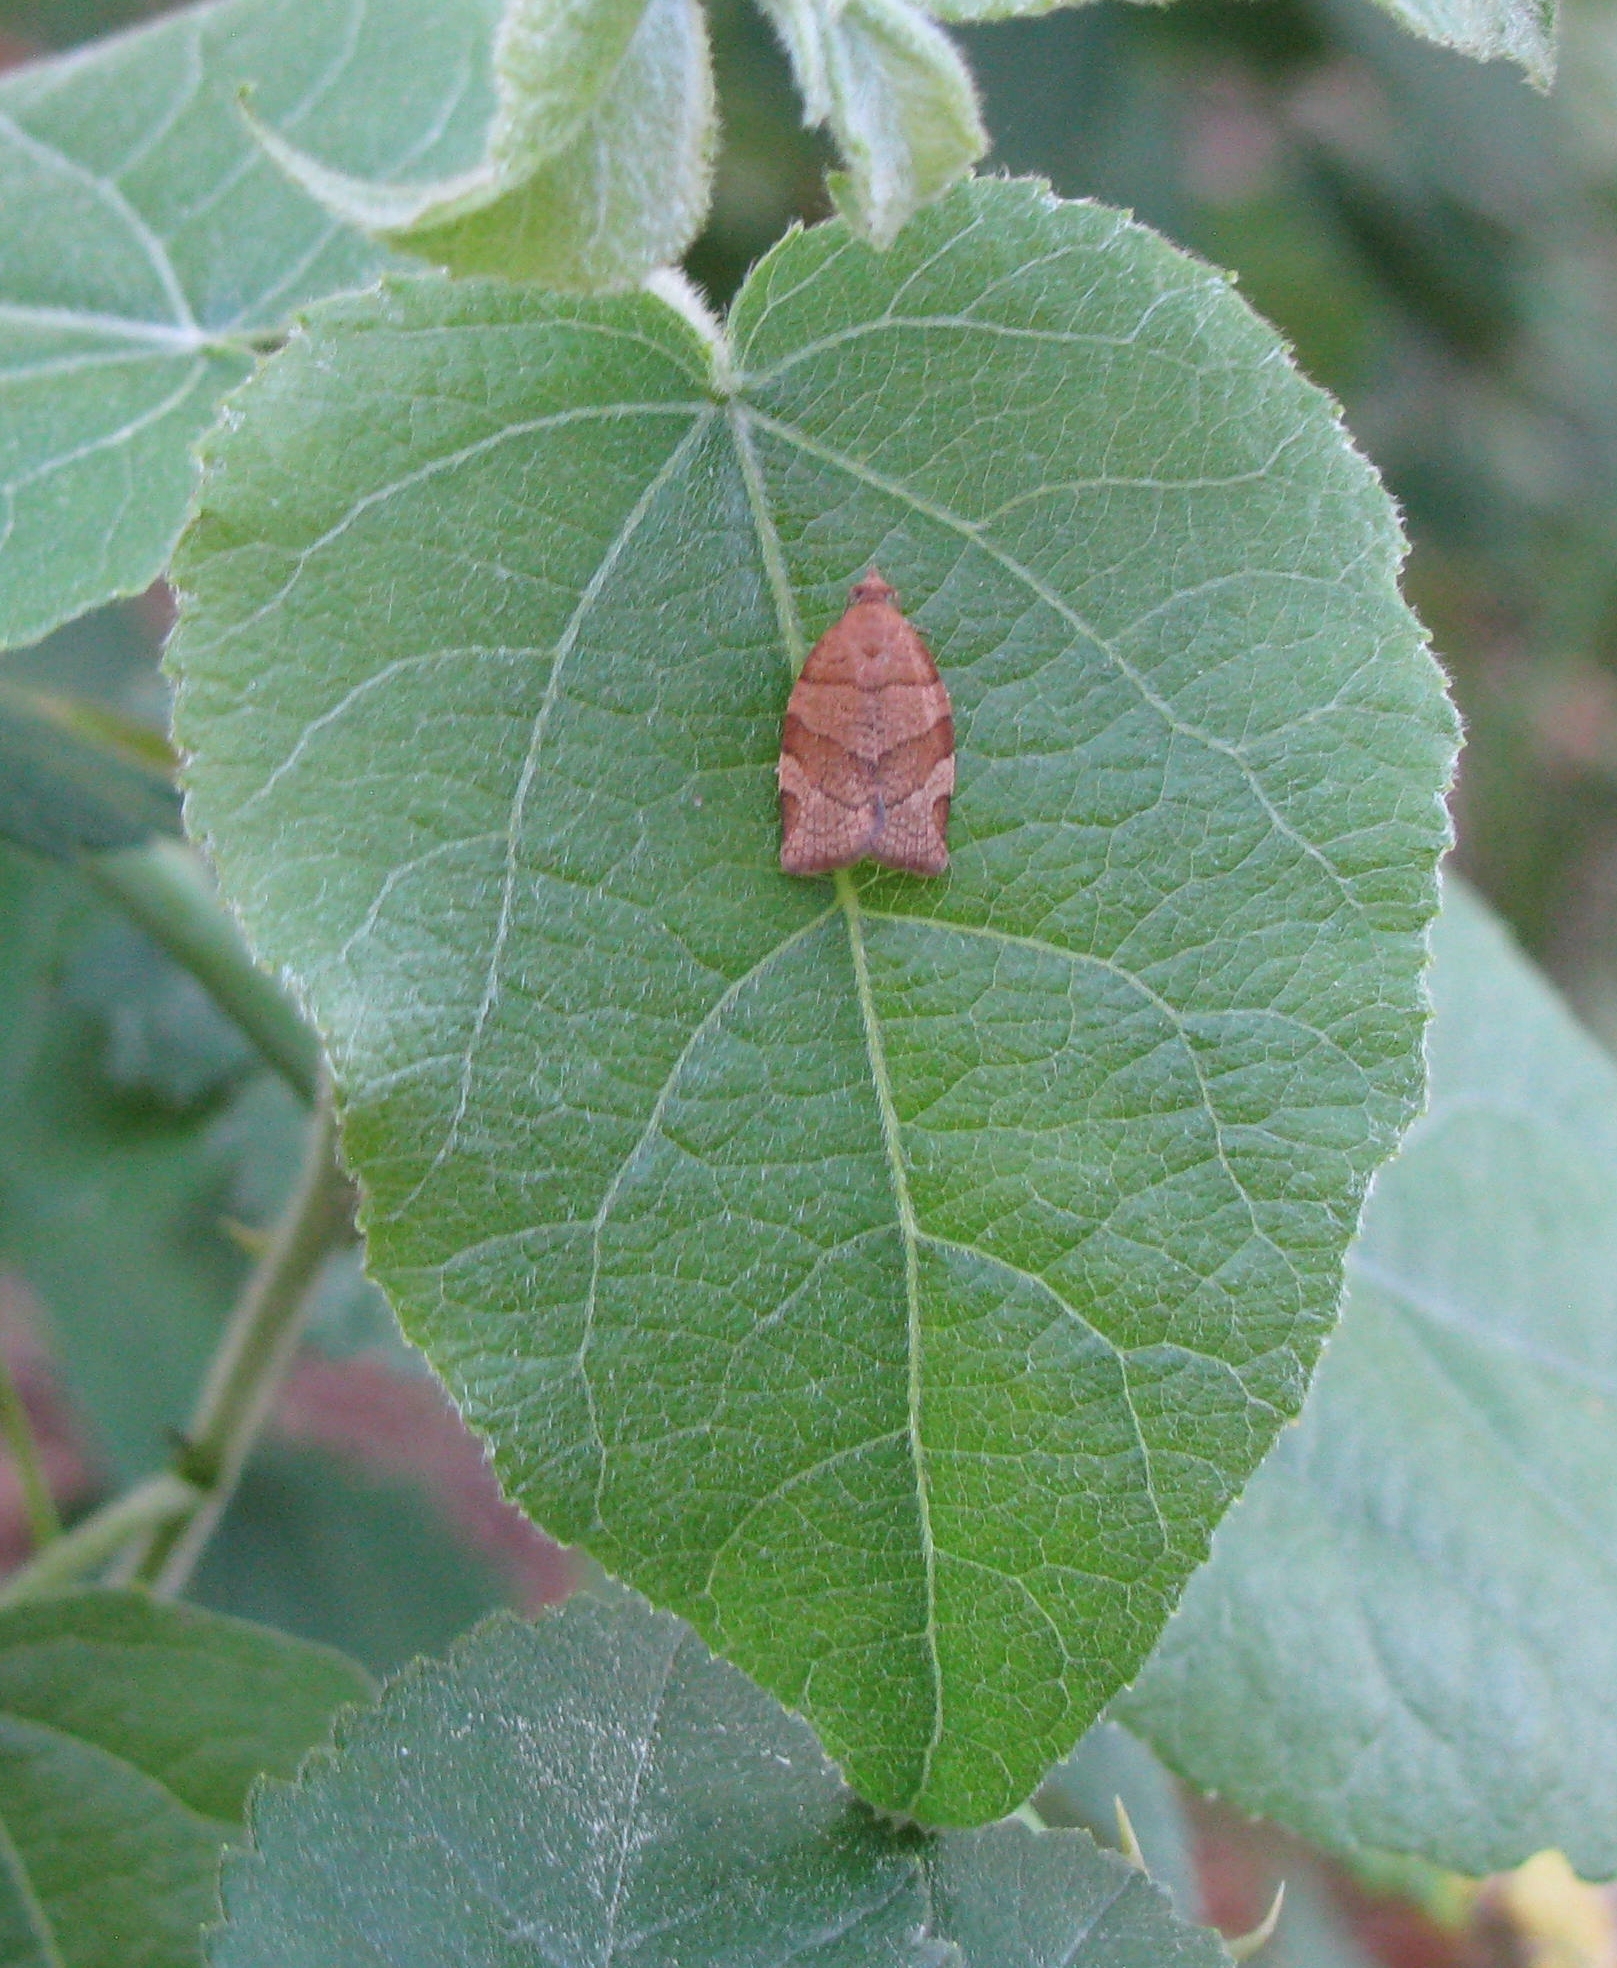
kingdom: Animalia
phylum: Arthropoda
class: Insecta
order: Lepidoptera
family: Tortricidae
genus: Pandemis
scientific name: Pandemis cinnamomeana
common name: White-faced twist
